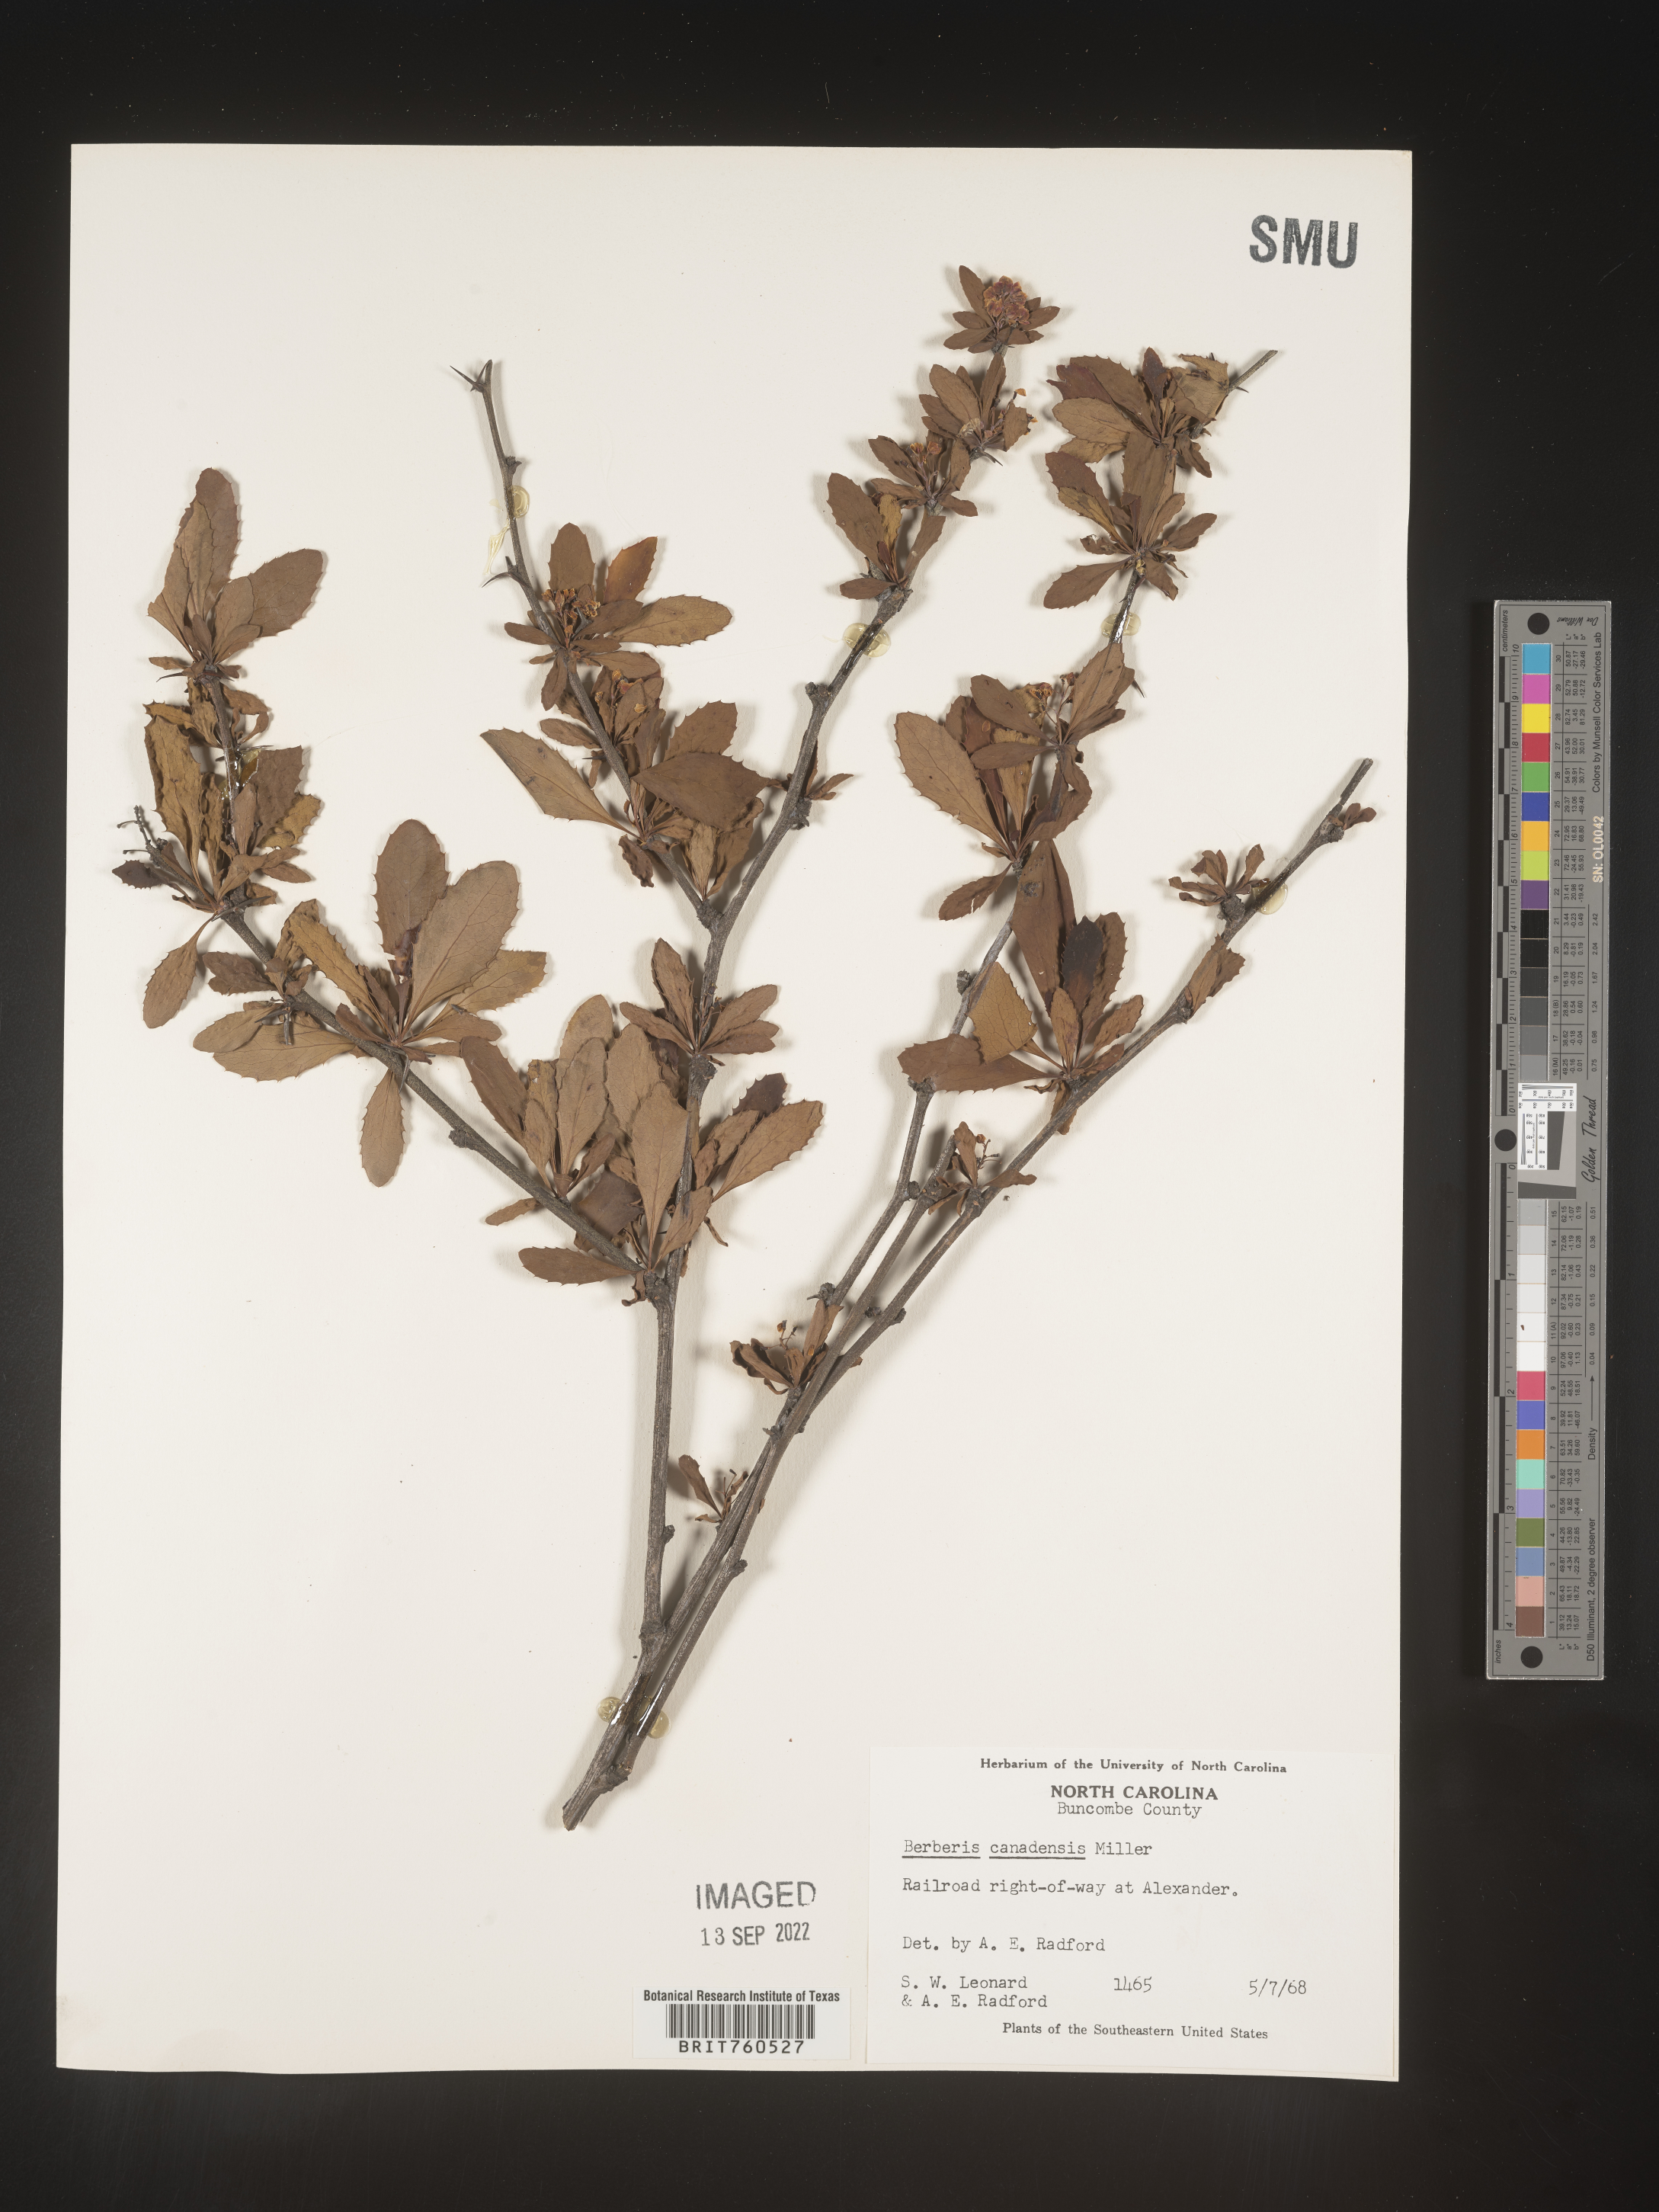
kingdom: Plantae
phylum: Tracheophyta
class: Magnoliopsida
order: Ranunculales
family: Berberidaceae
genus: Berberis
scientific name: Berberis
